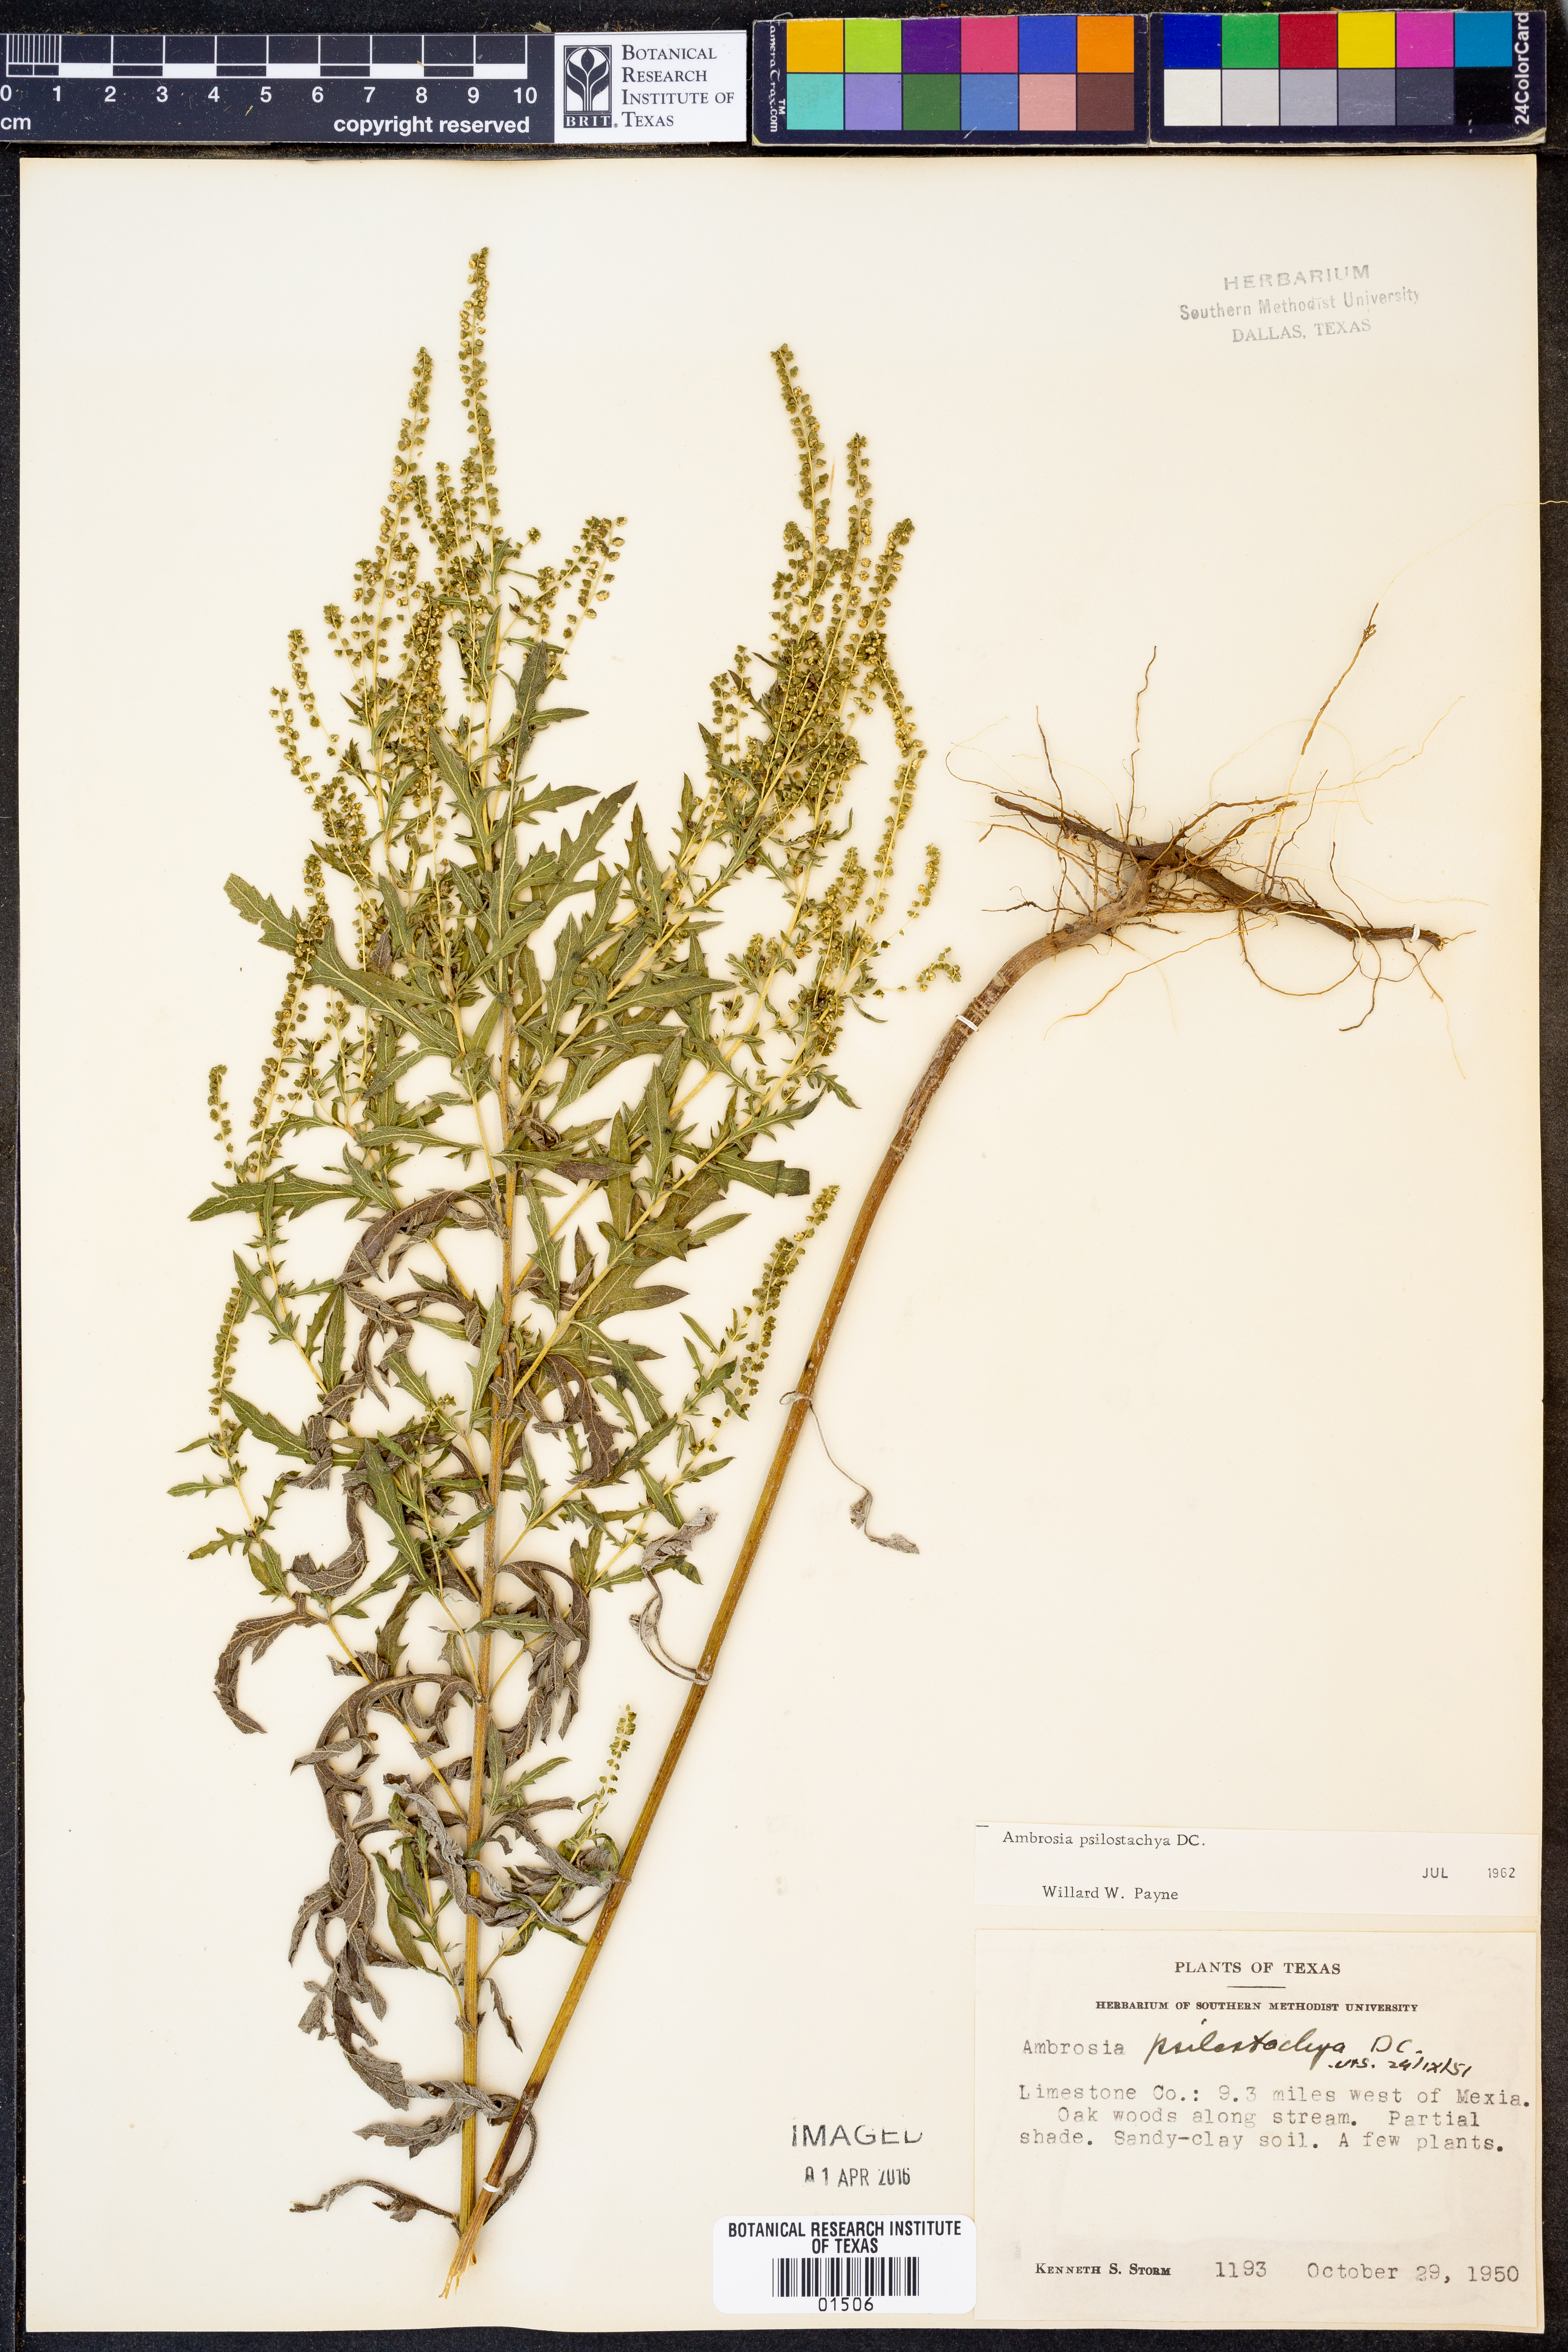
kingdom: Plantae
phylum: Tracheophyta
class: Magnoliopsida
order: Asterales
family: Asteraceae
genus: Ambrosia
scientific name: Ambrosia psilostachya
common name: Perennial ragweed
